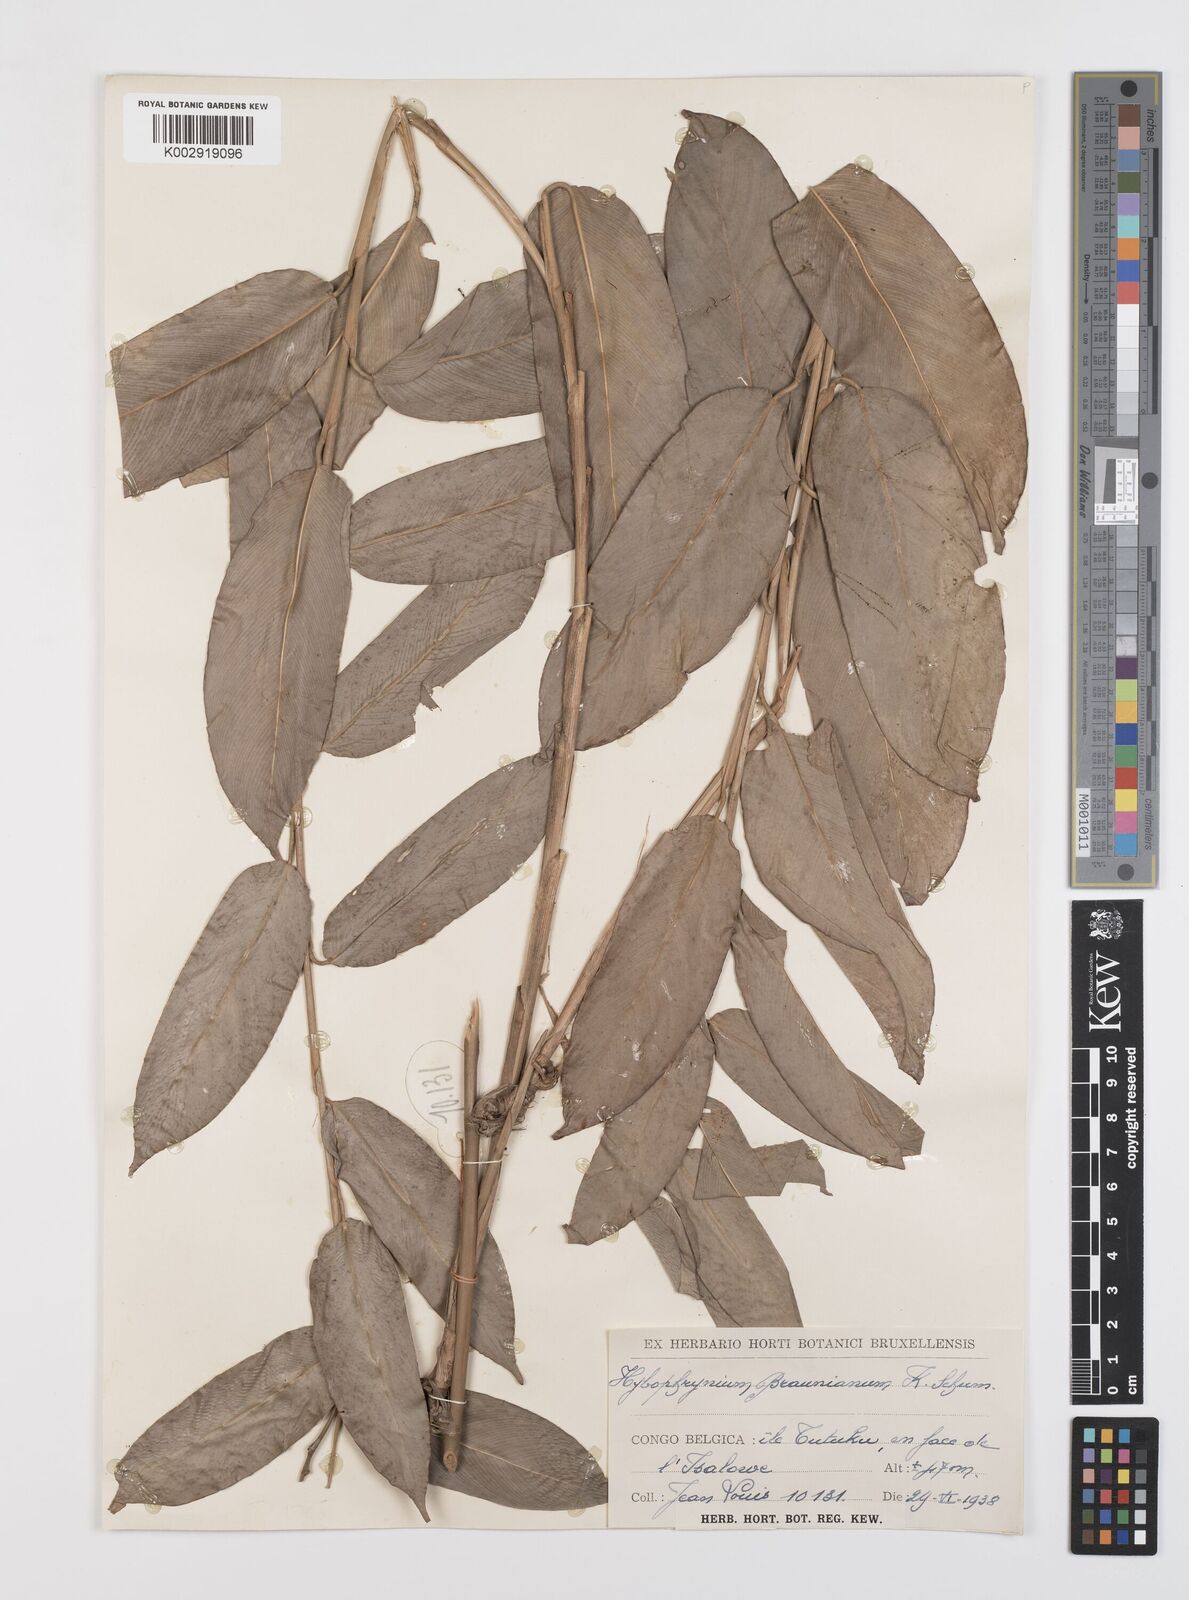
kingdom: Plantae
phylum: Tracheophyta
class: Liliopsida
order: Zingiberales
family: Marantaceae
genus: Trachyphrynium
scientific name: Trachyphrynium braunianum
